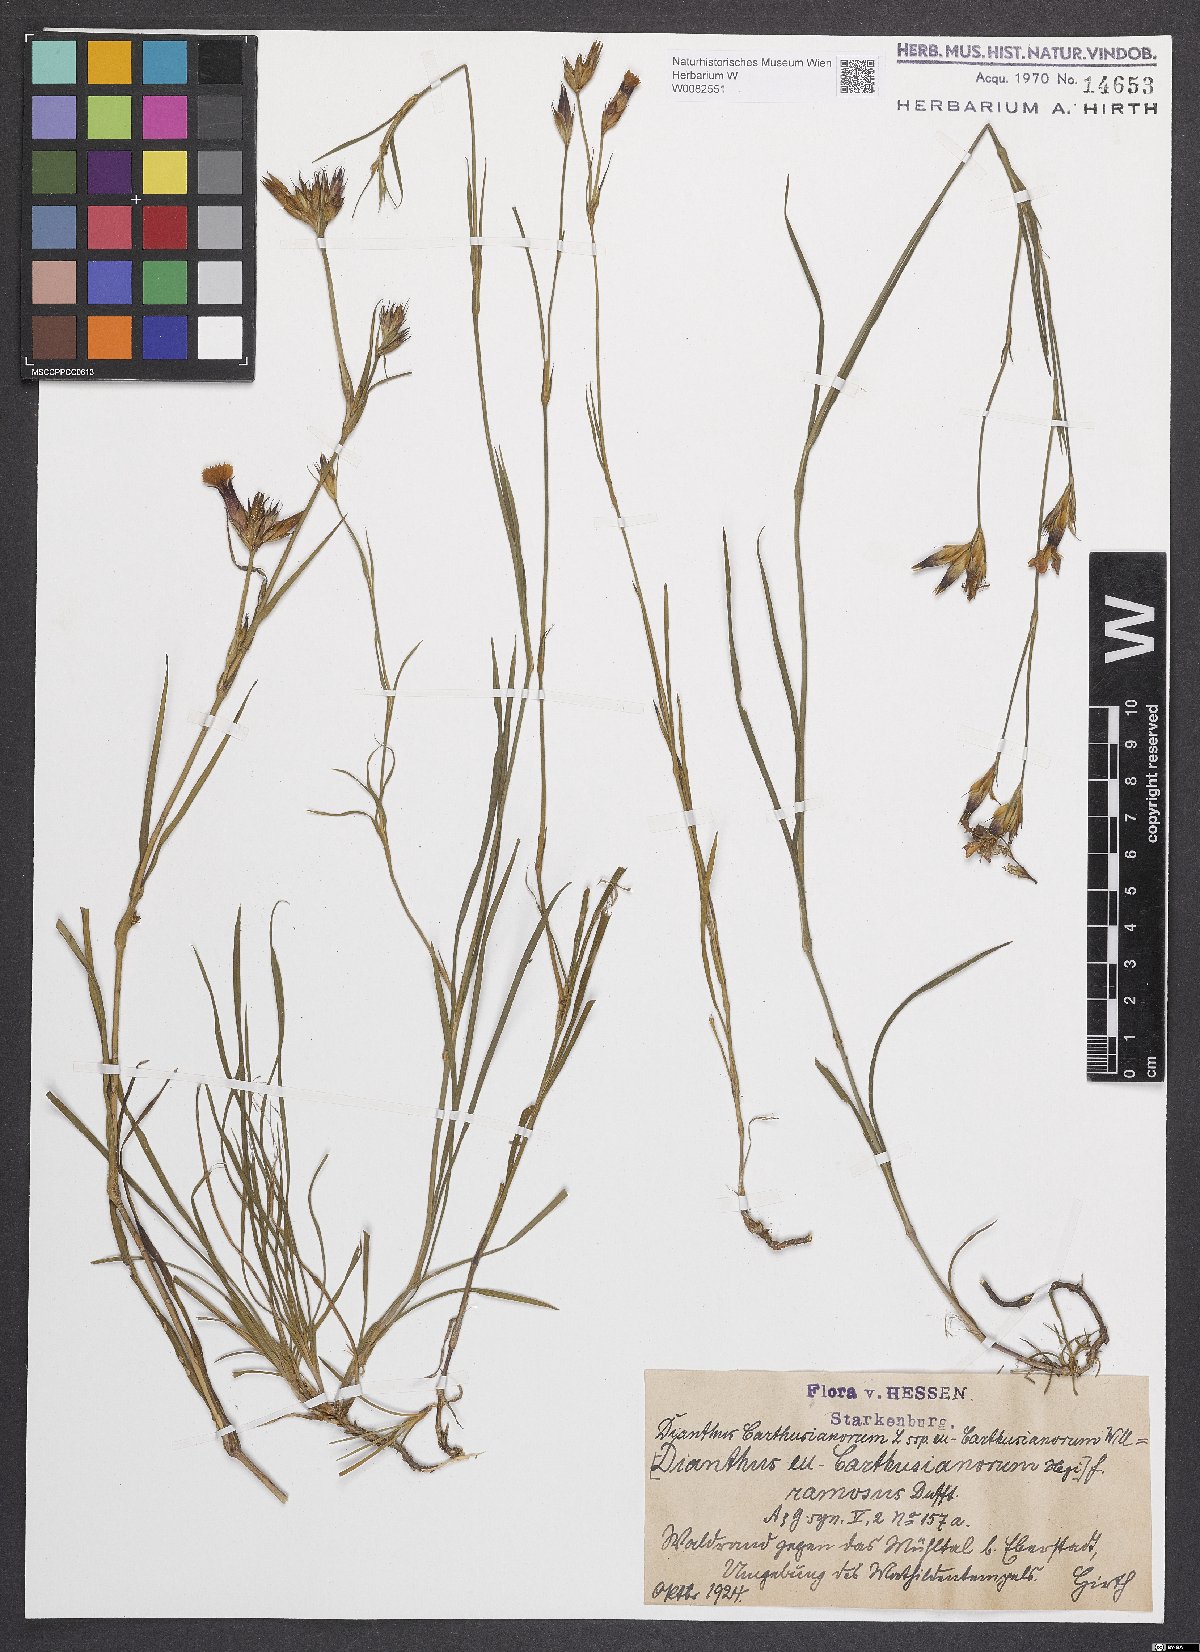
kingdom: Plantae
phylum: Tracheophyta
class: Magnoliopsida
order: Caryophyllales
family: Caryophyllaceae
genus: Dianthus
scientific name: Dianthus carthusianorum
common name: Carthusian pink
